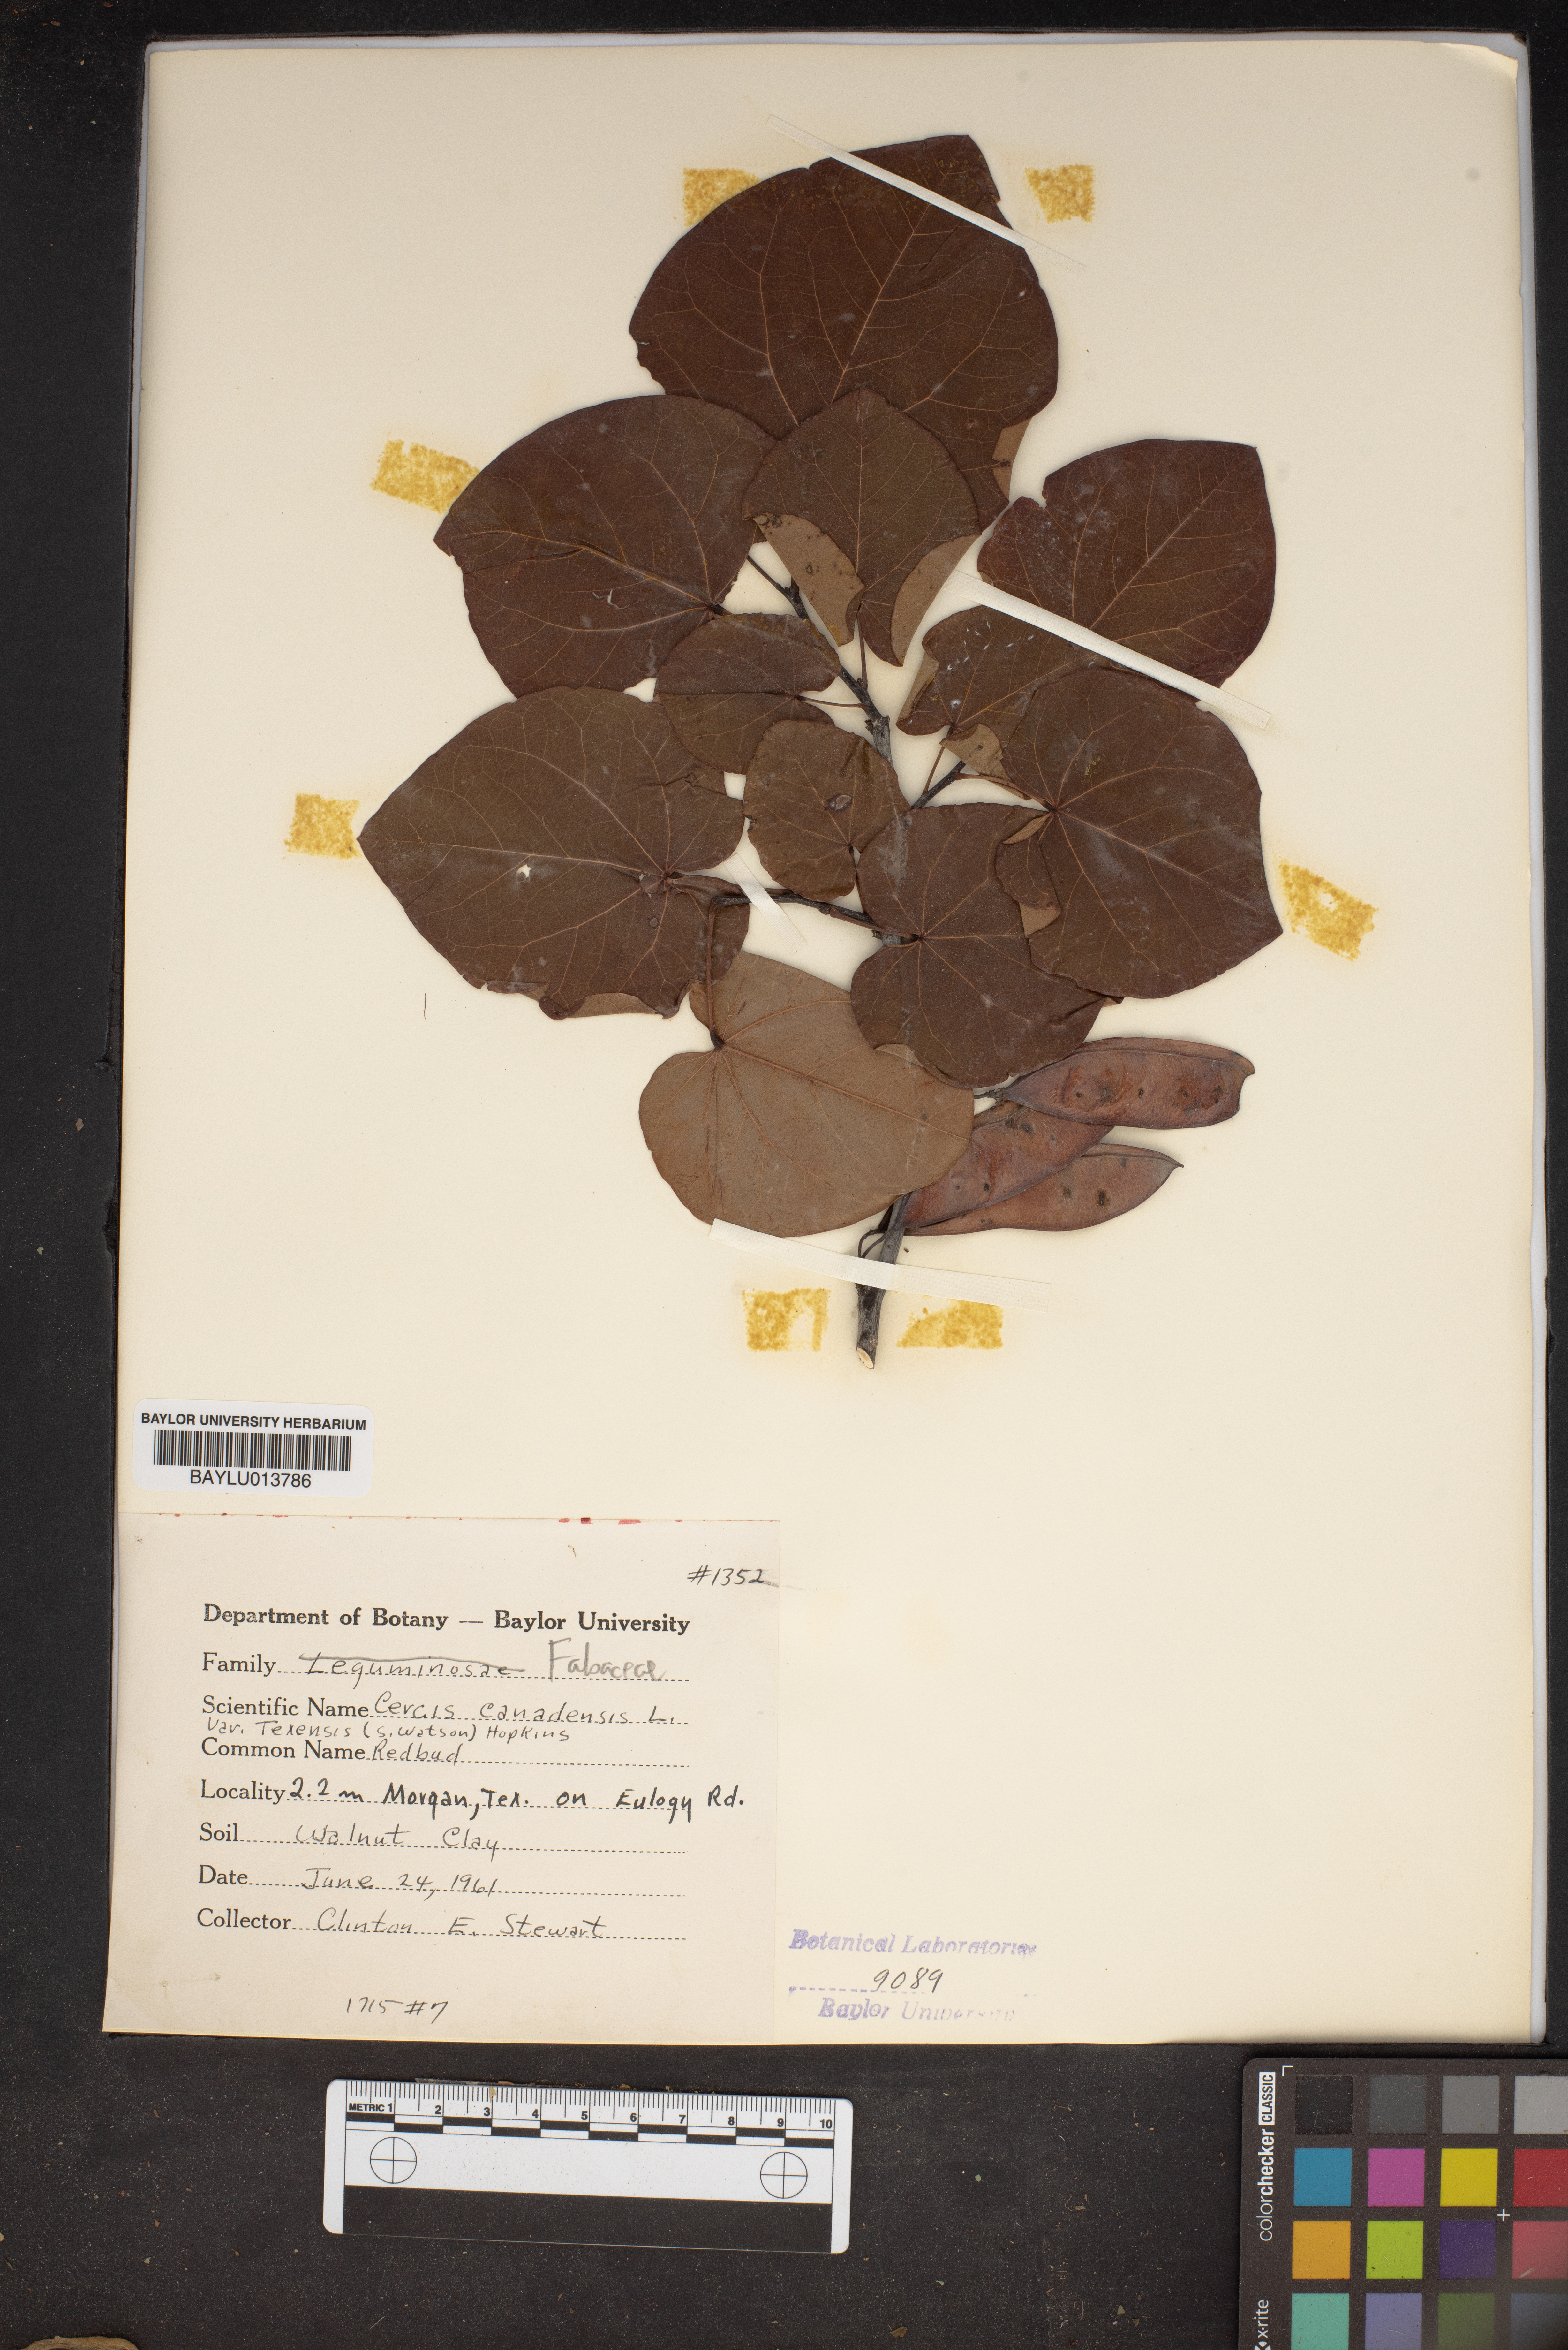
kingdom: Plantae
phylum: Tracheophyta
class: Magnoliopsida
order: Fabales
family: Fabaceae
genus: Cercis
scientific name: Cercis canadensis
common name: Eastern redbud
